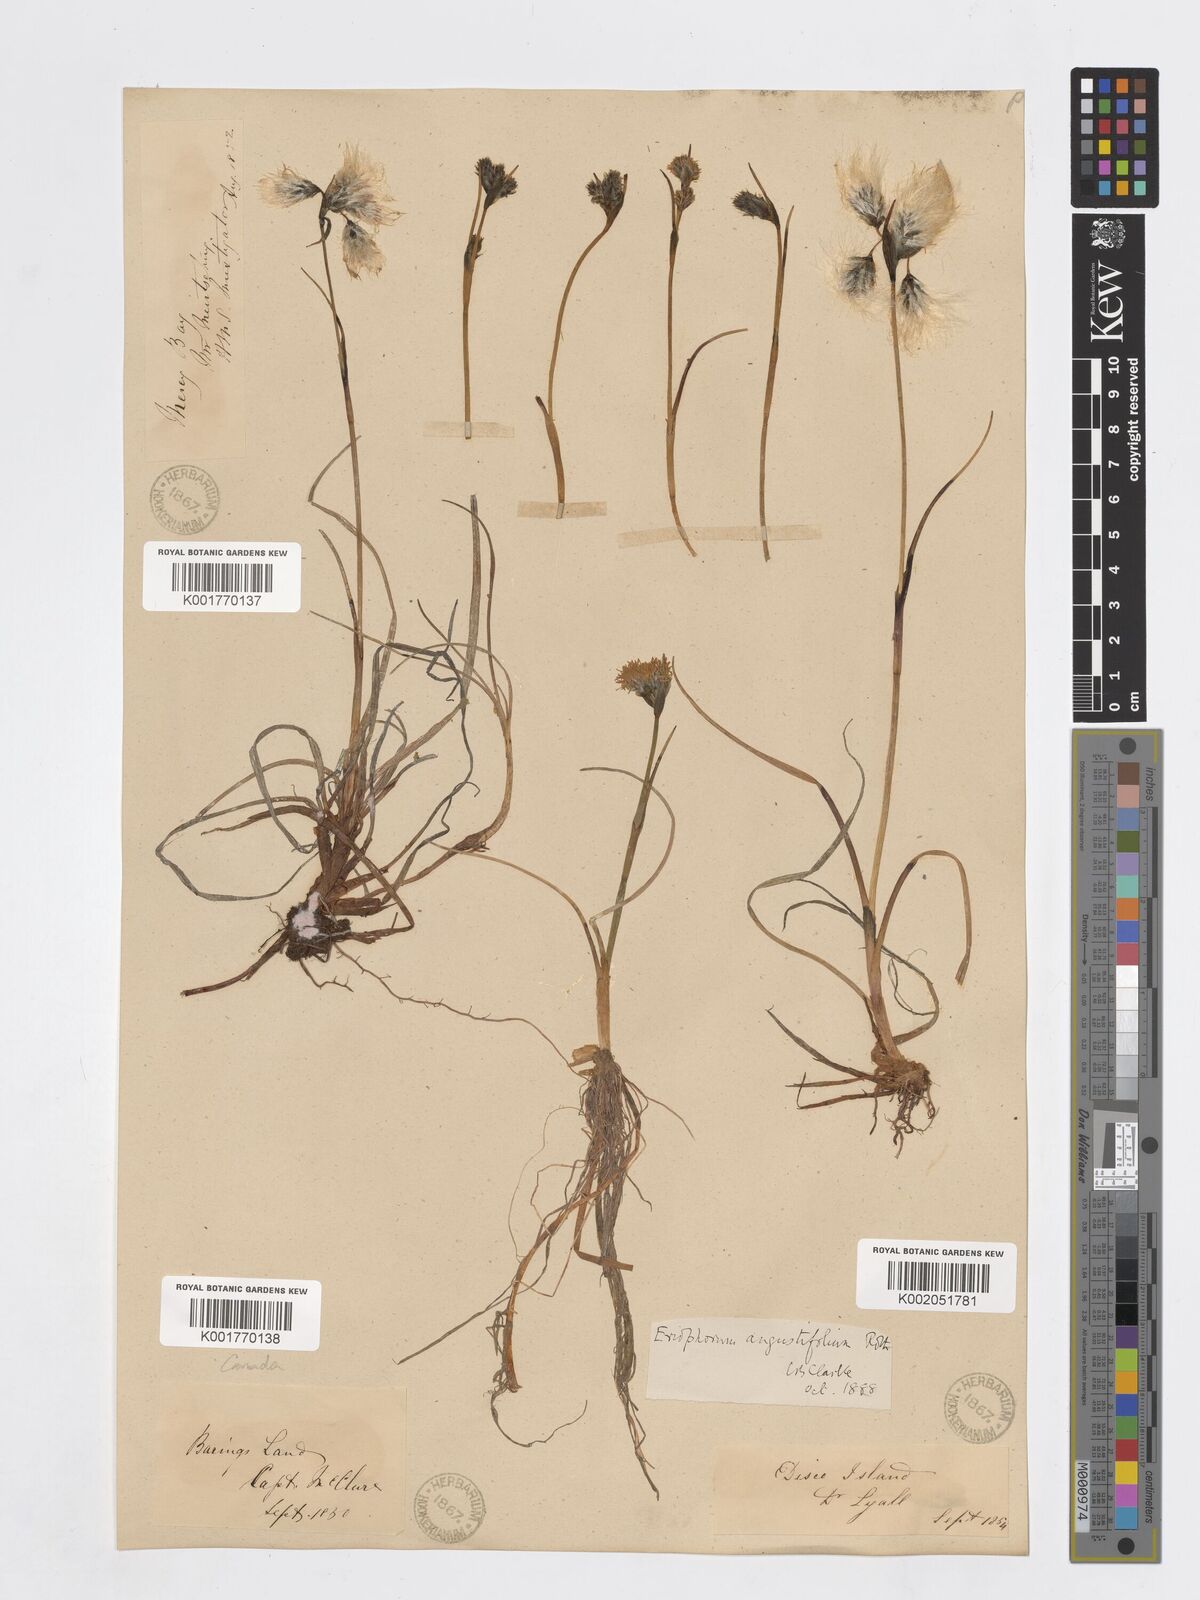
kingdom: Plantae
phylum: Tracheophyta
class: Liliopsida
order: Poales
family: Cyperaceae
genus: Eriophorum
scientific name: Eriophorum angustifolium
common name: Common cottongrass
